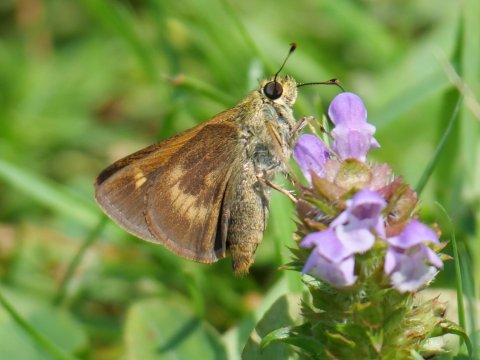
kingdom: Animalia
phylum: Arthropoda
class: Insecta
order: Lepidoptera
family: Hesperiidae
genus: Polites
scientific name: Polites egeremet
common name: Northern Broken-Dash
